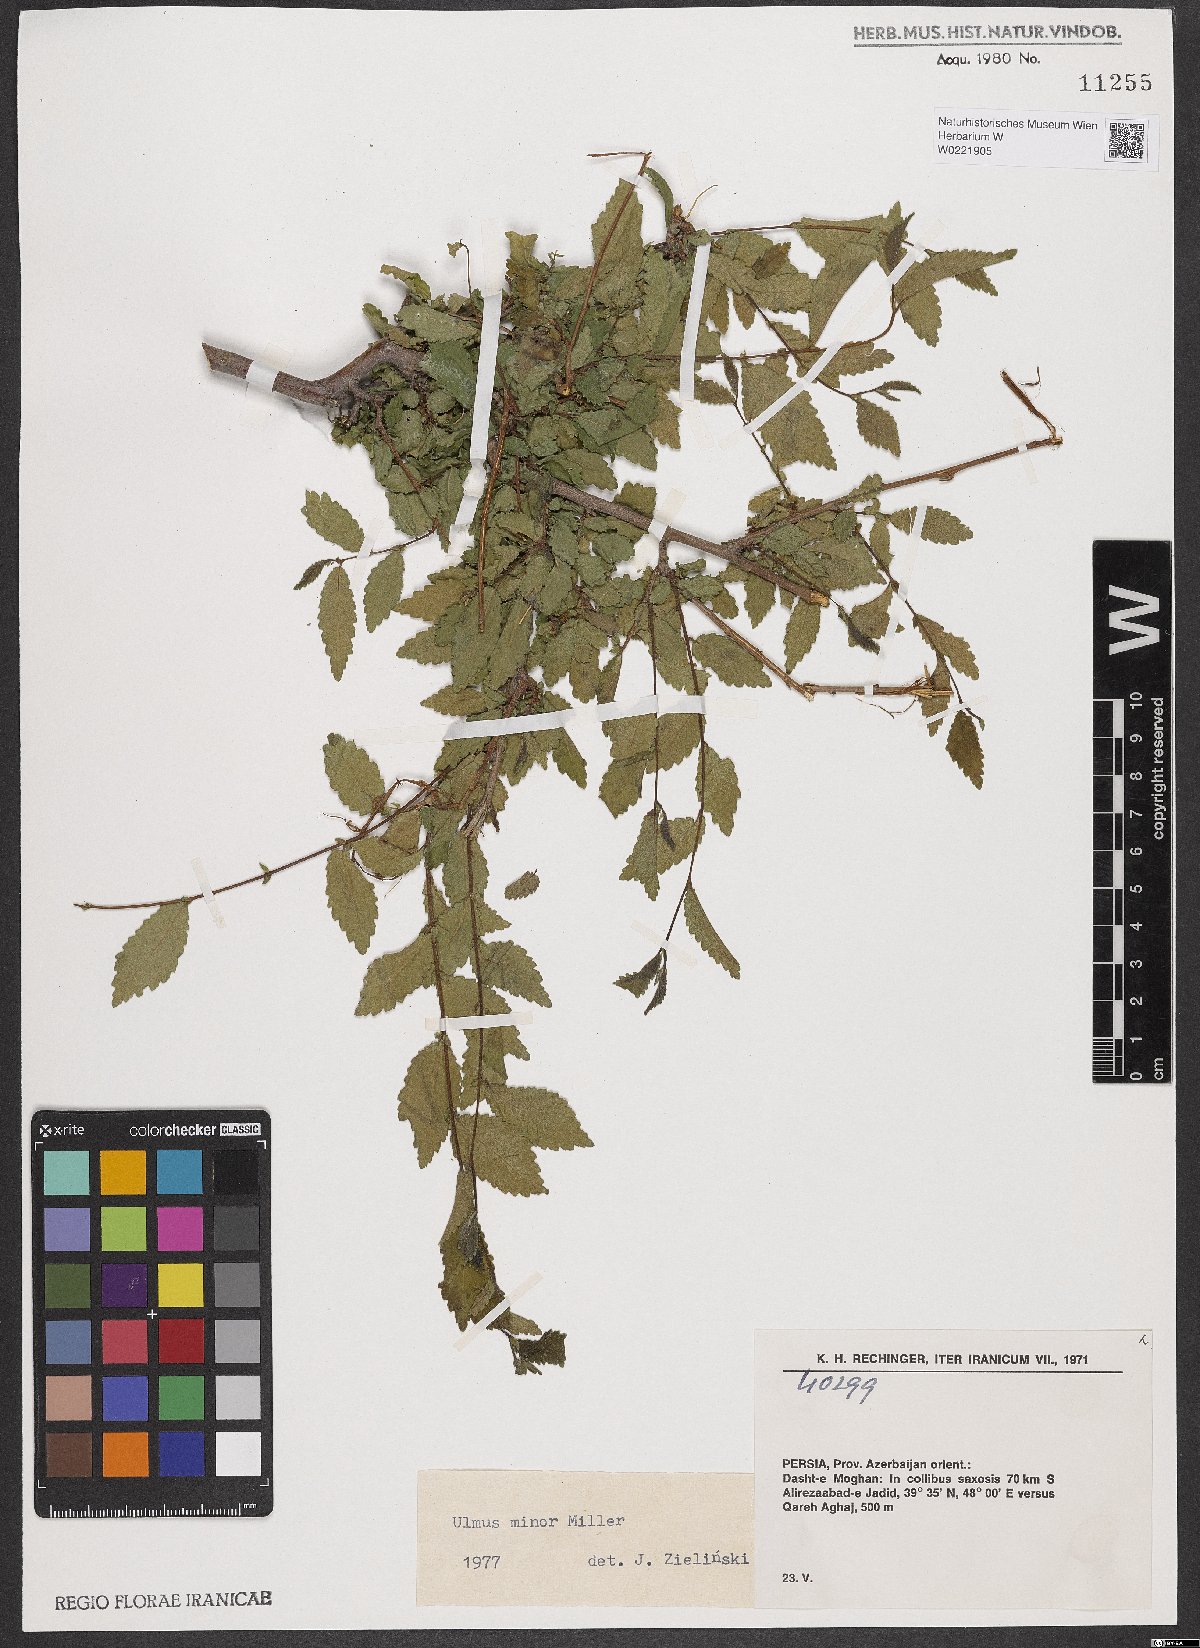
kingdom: Plantae
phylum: Tracheophyta
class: Magnoliopsida
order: Rosales
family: Ulmaceae
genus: Ulmus
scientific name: Ulmus minor
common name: Small-leaved elm
